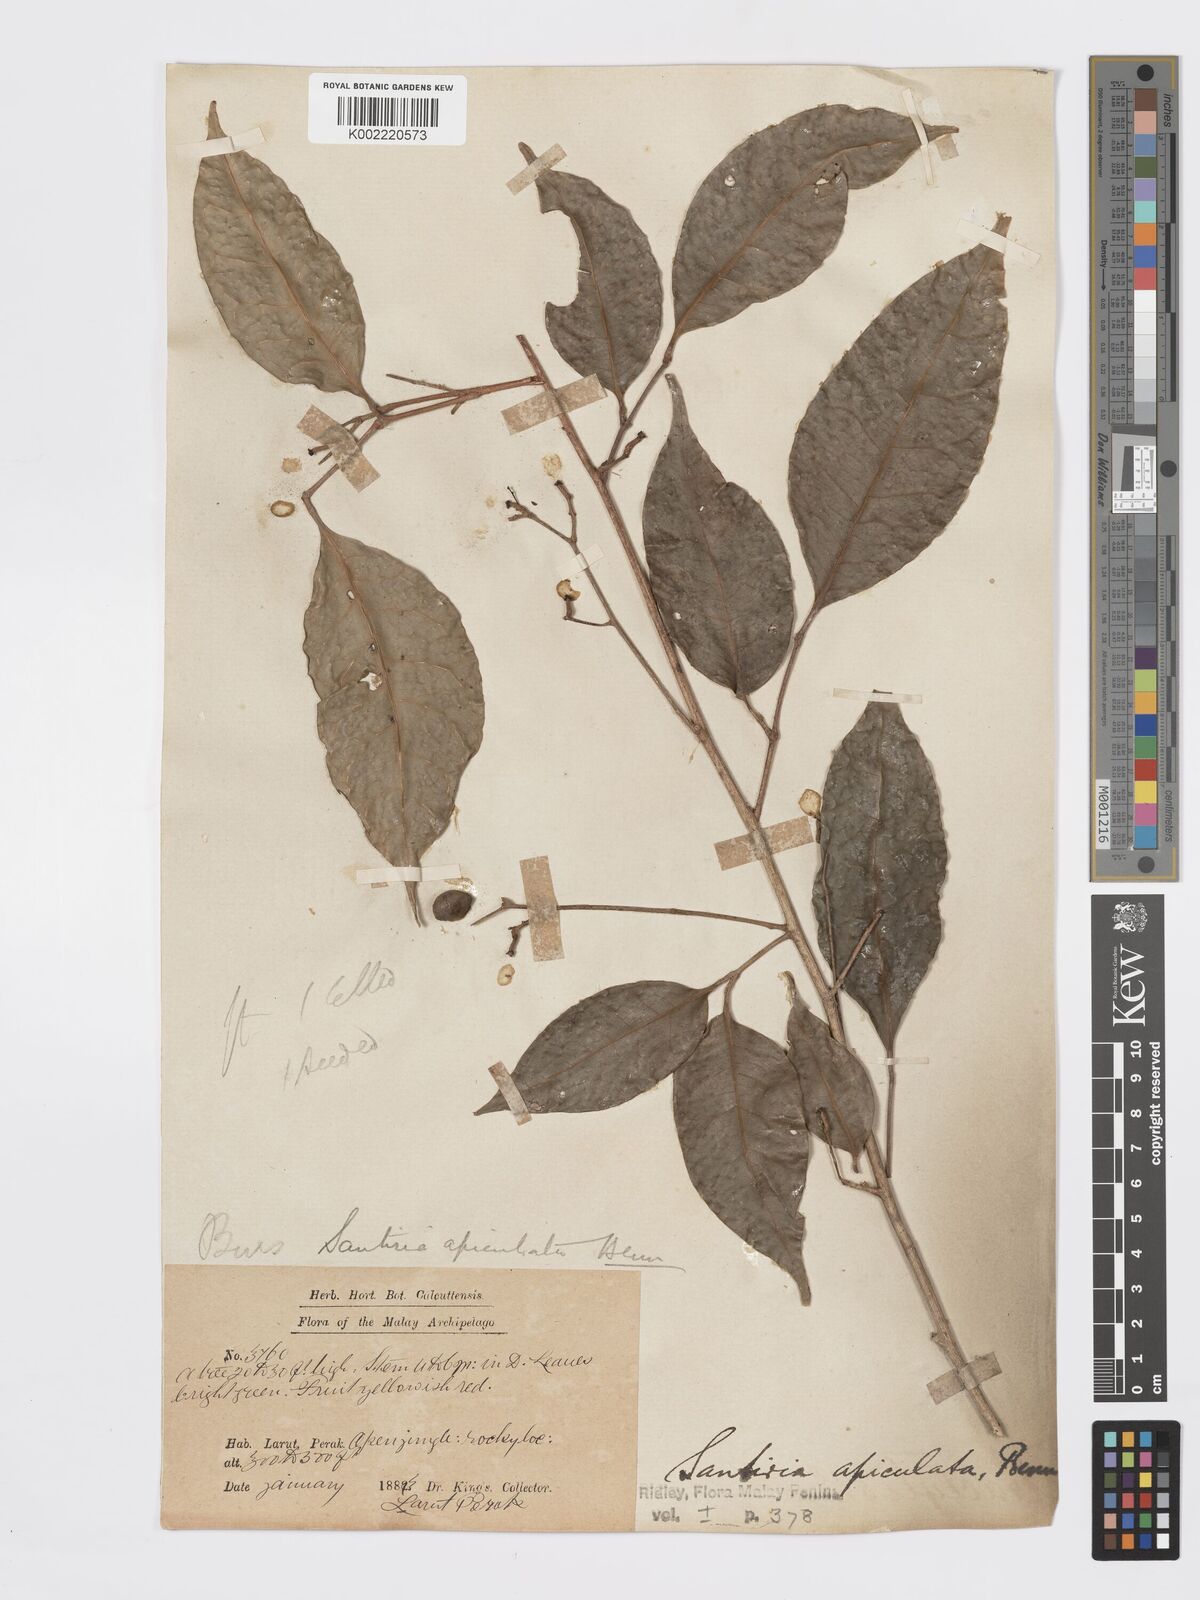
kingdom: Plantae
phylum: Tracheophyta
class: Magnoliopsida
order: Sapindales
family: Burseraceae
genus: Santiria
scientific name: Santiria apiculata
